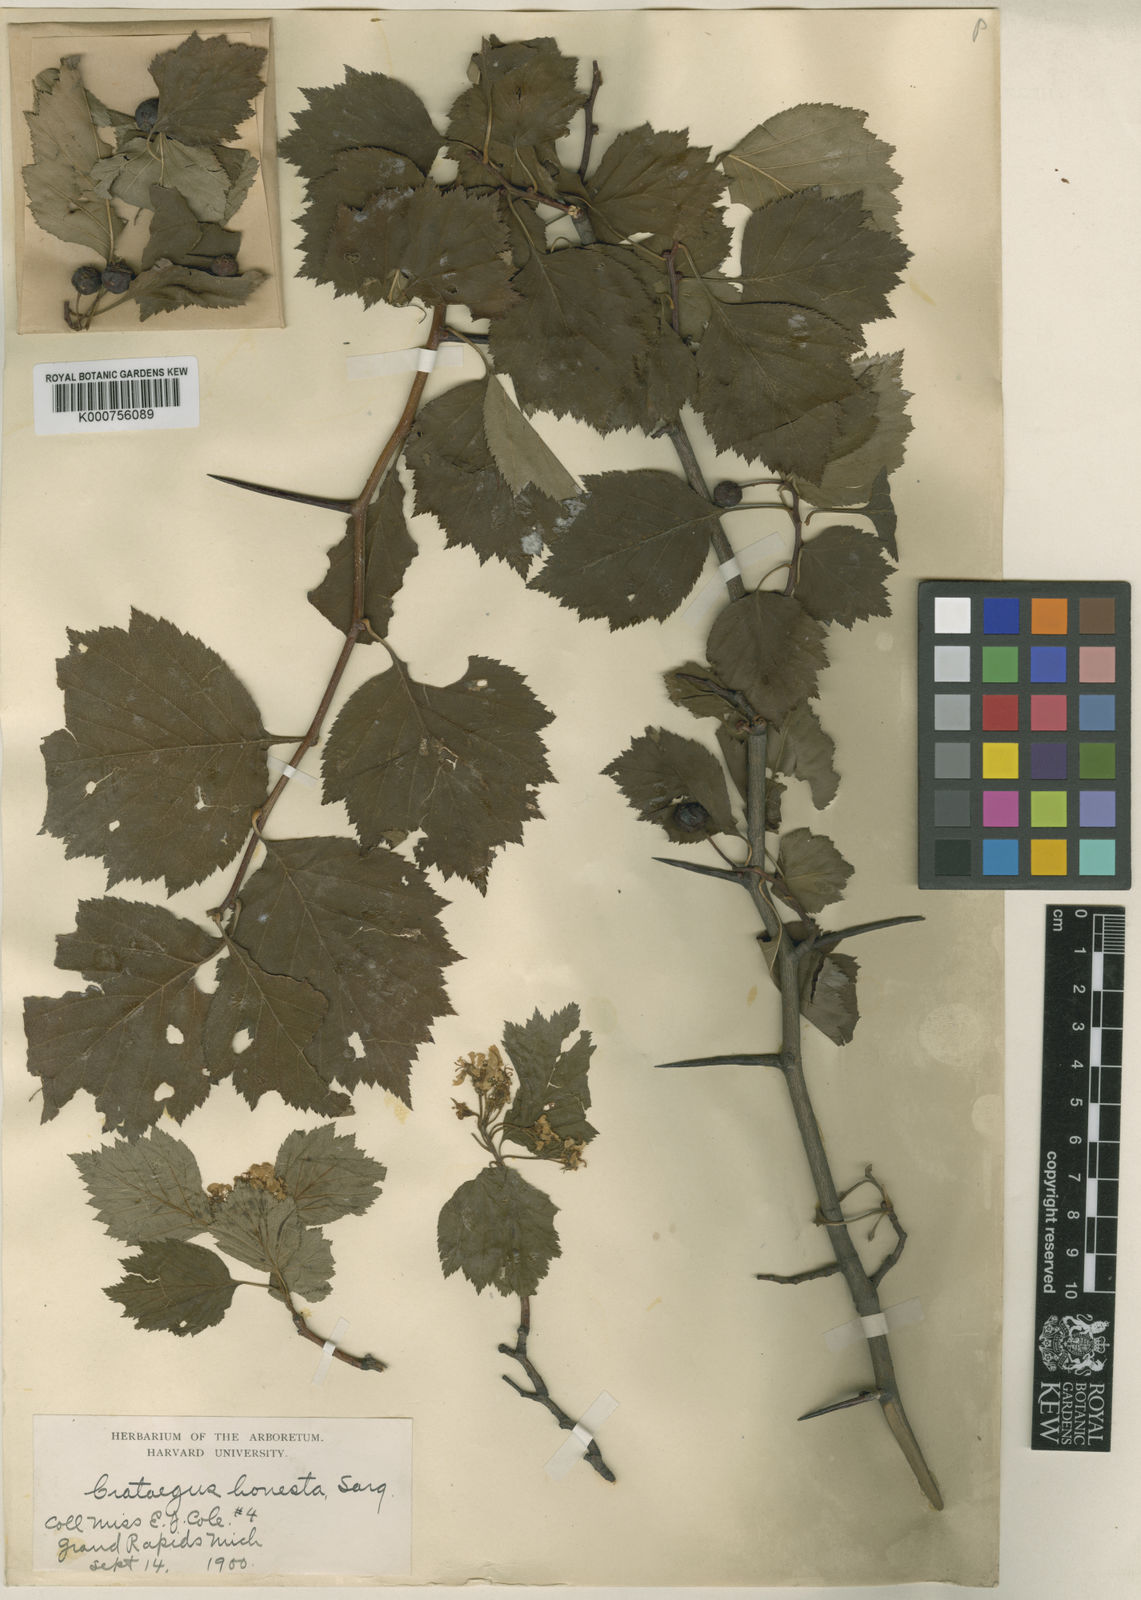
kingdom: Plantae
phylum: Tracheophyta
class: Magnoliopsida
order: Rosales
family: Rosaceae
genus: Crataegus
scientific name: Crataegus scabrida
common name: Rough hawthorn
